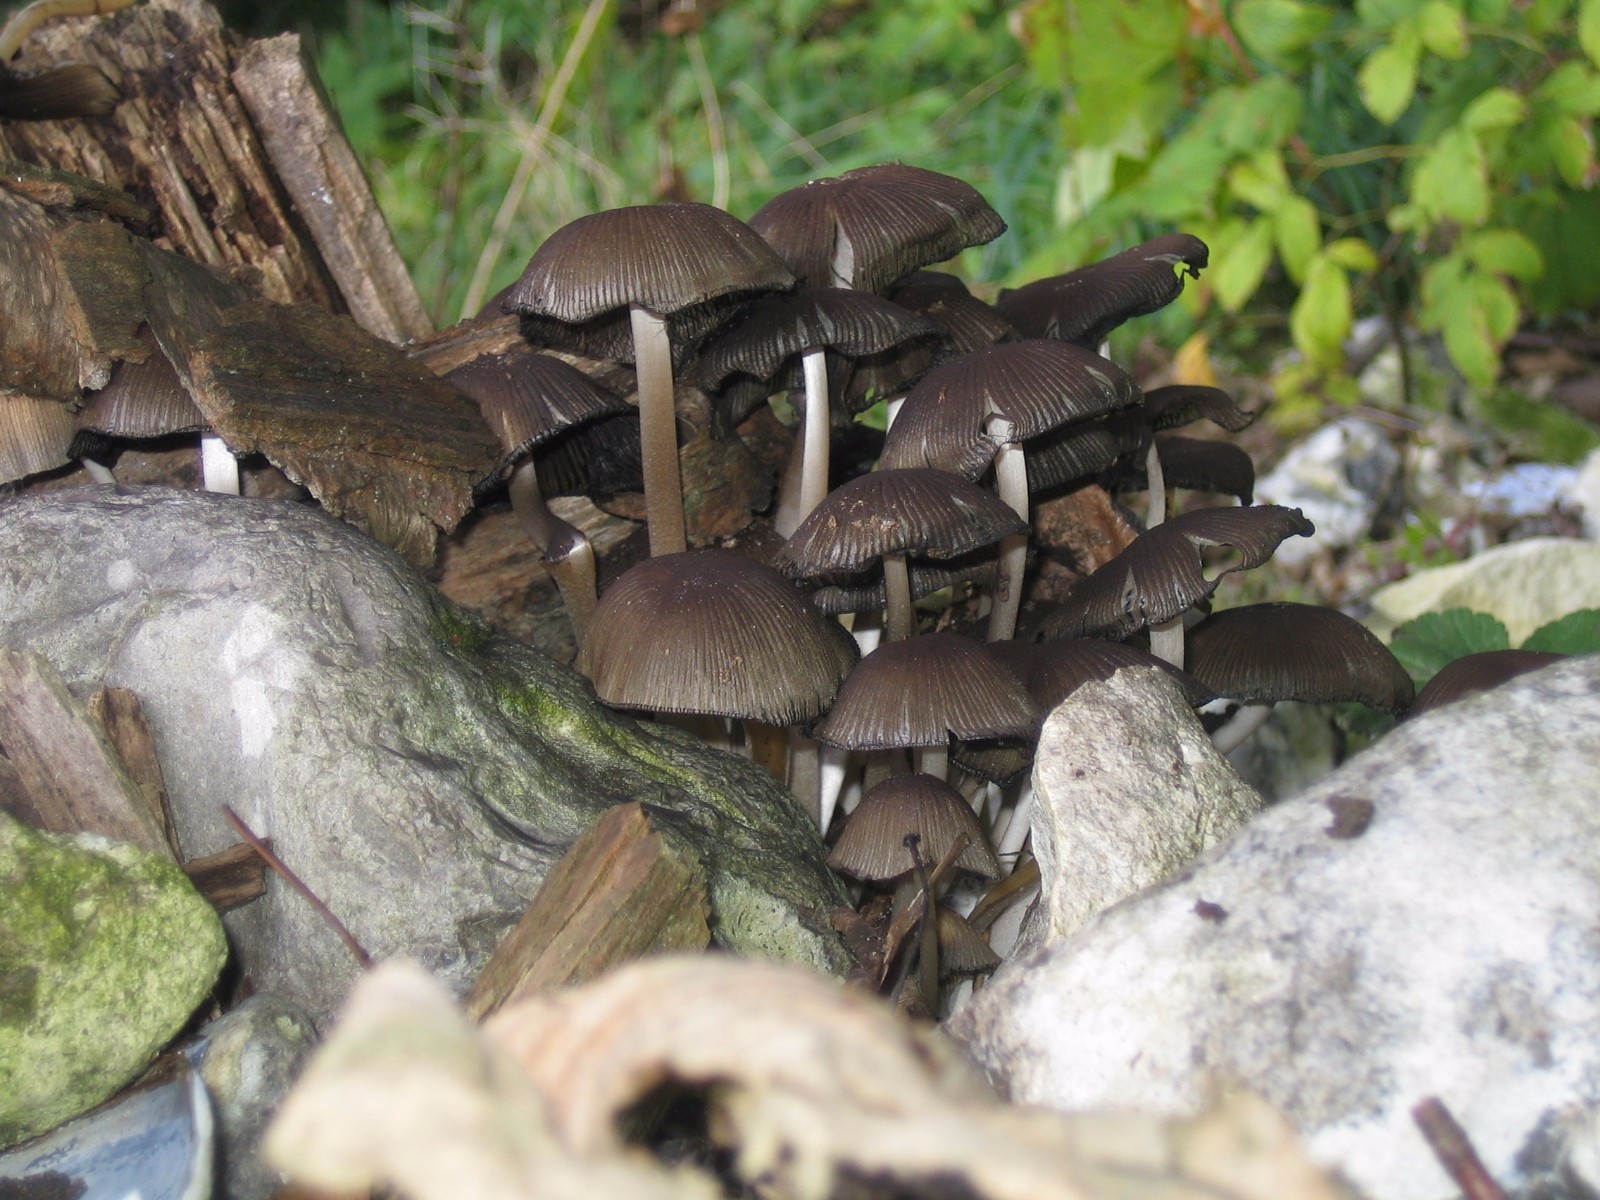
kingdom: Fungi
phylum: Basidiomycota
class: Agaricomycetes
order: Agaricales
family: Psathyrellaceae
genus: Coprinellus
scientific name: Coprinellus micaceus
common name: glimmer-blækhat
